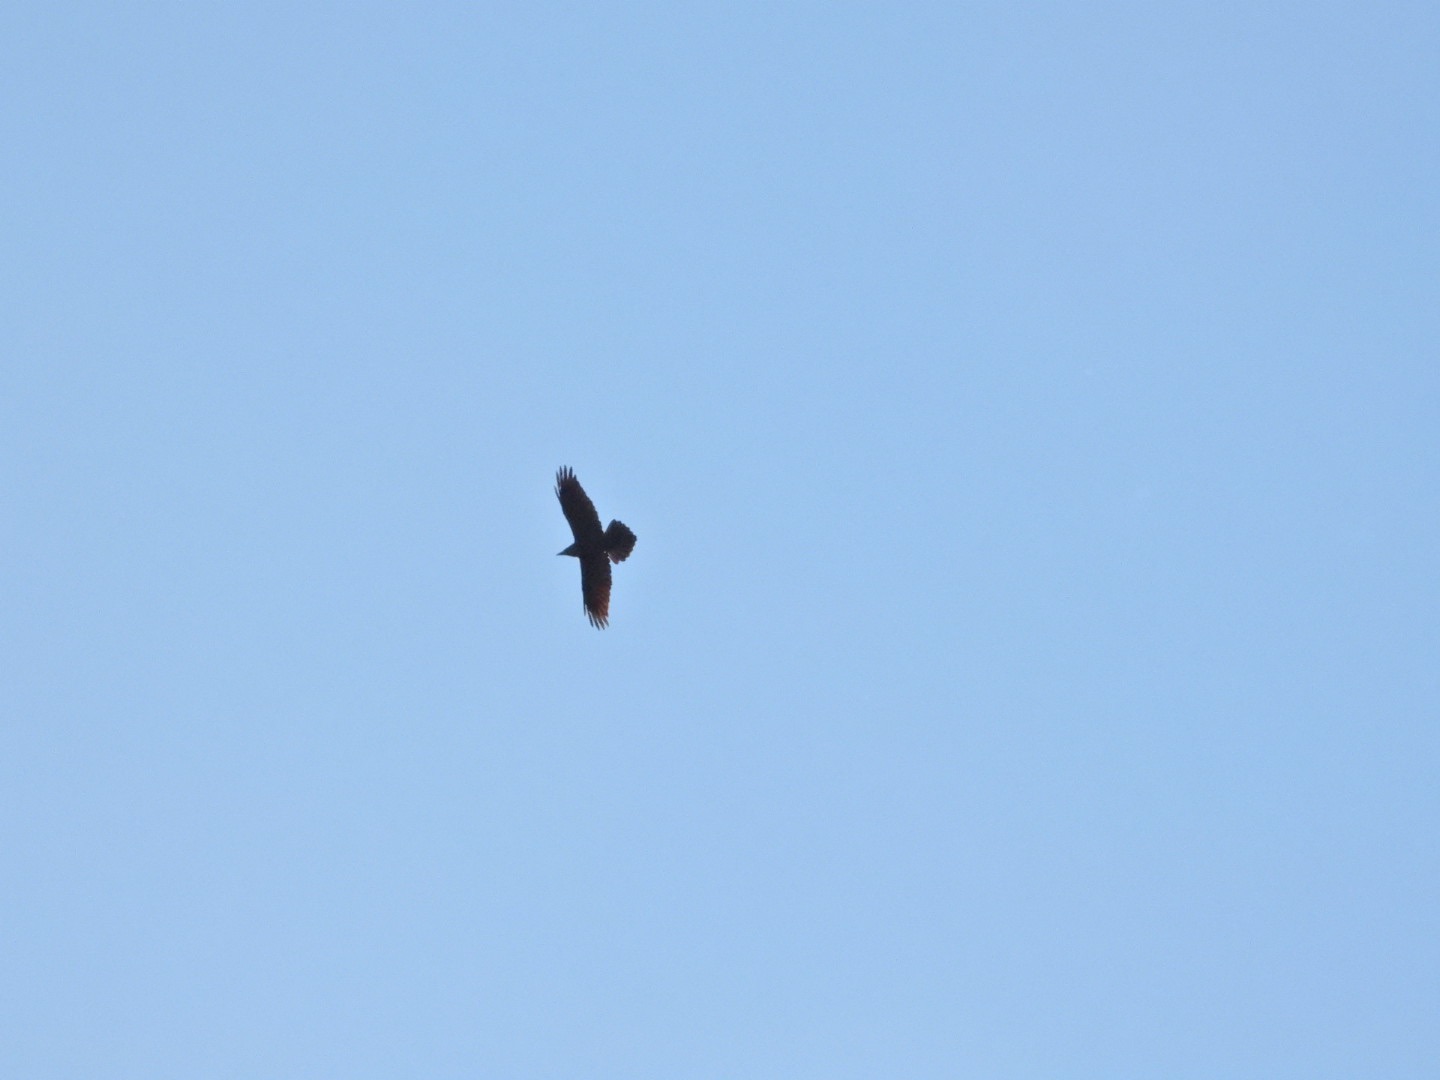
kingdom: Animalia
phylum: Chordata
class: Aves
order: Passeriformes
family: Corvidae
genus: Corvus
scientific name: Corvus corax
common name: Ravn
